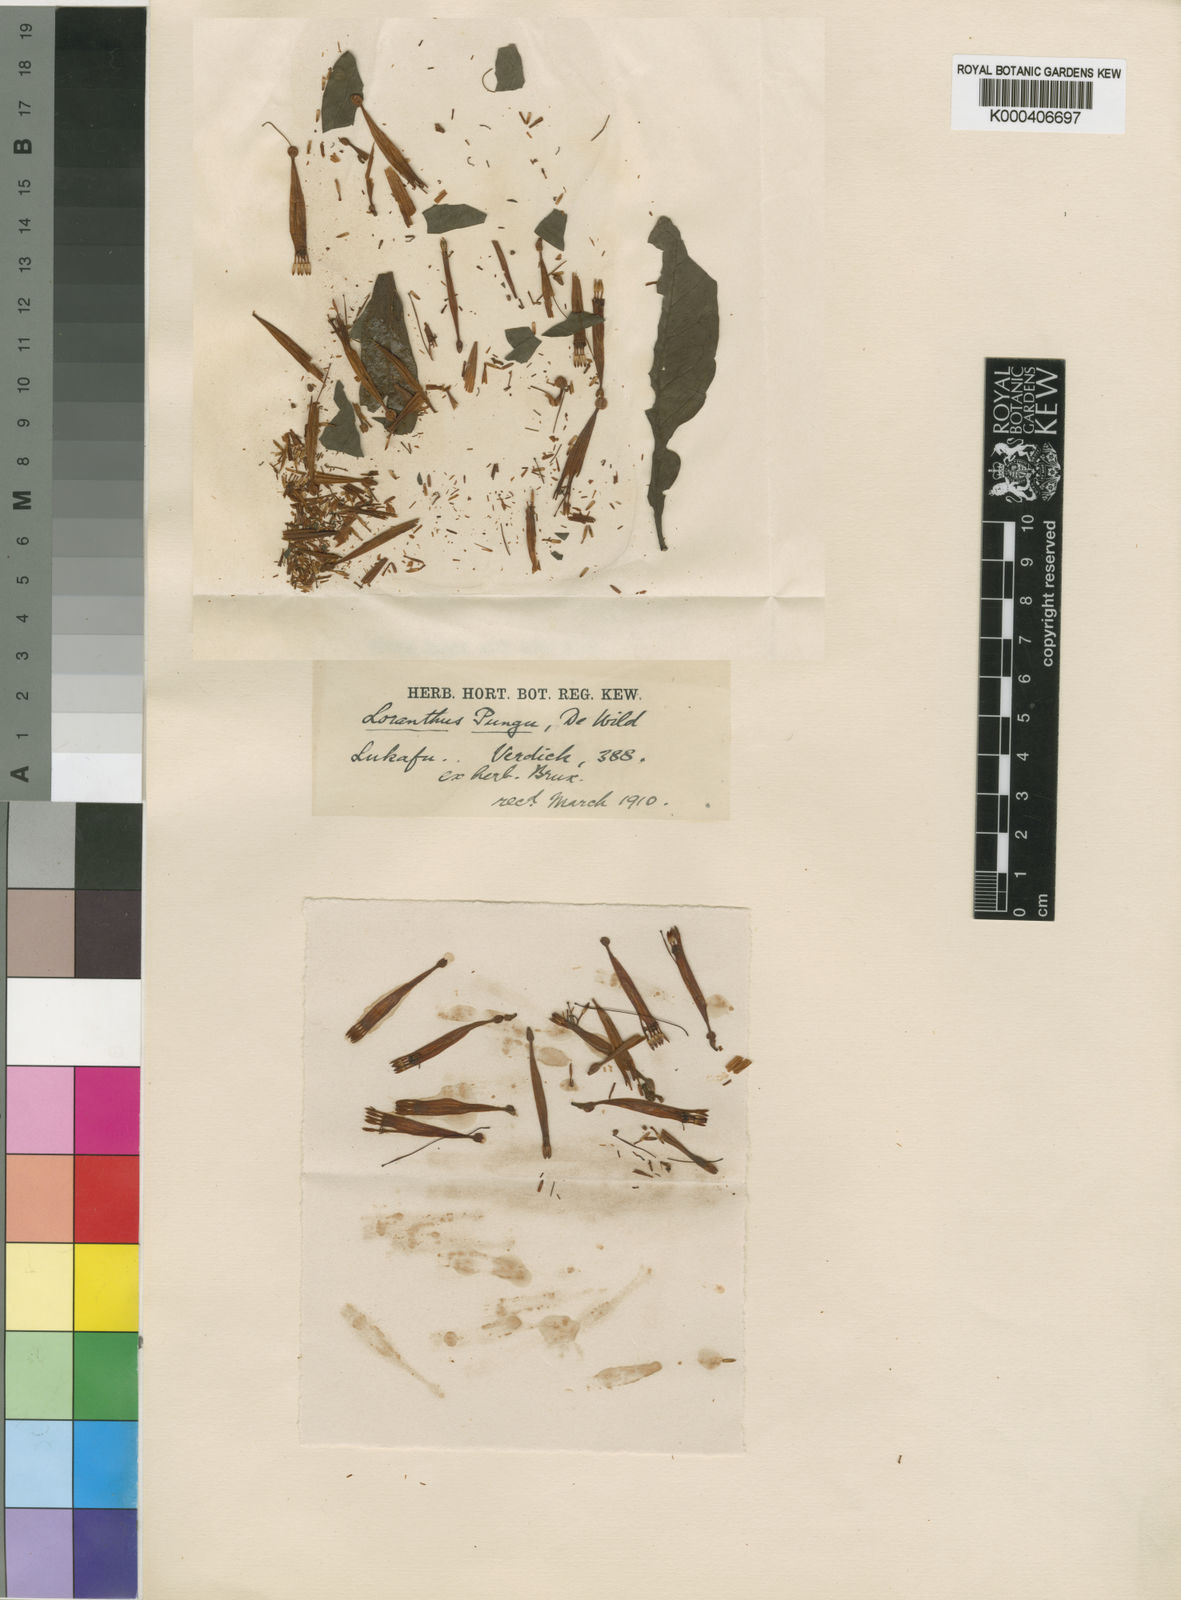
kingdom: Plantae
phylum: Tracheophyta
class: Magnoliopsida
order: Santalales
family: Loranthaceae
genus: Agelanthus
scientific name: Agelanthus pungu
